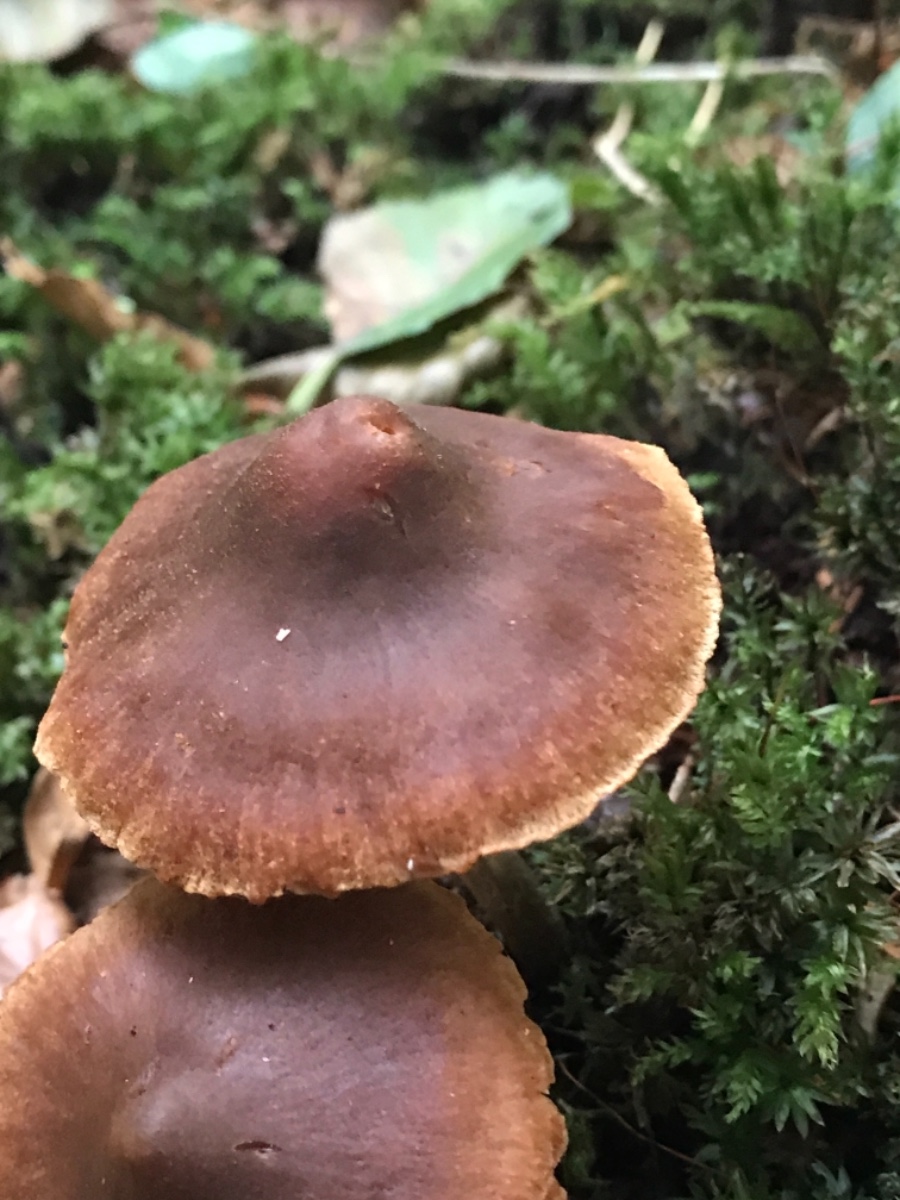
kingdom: Fungi
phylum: Basidiomycota
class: Agaricomycetes
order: Agaricales
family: Cortinariaceae
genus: Cortinarius
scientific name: Cortinarius
